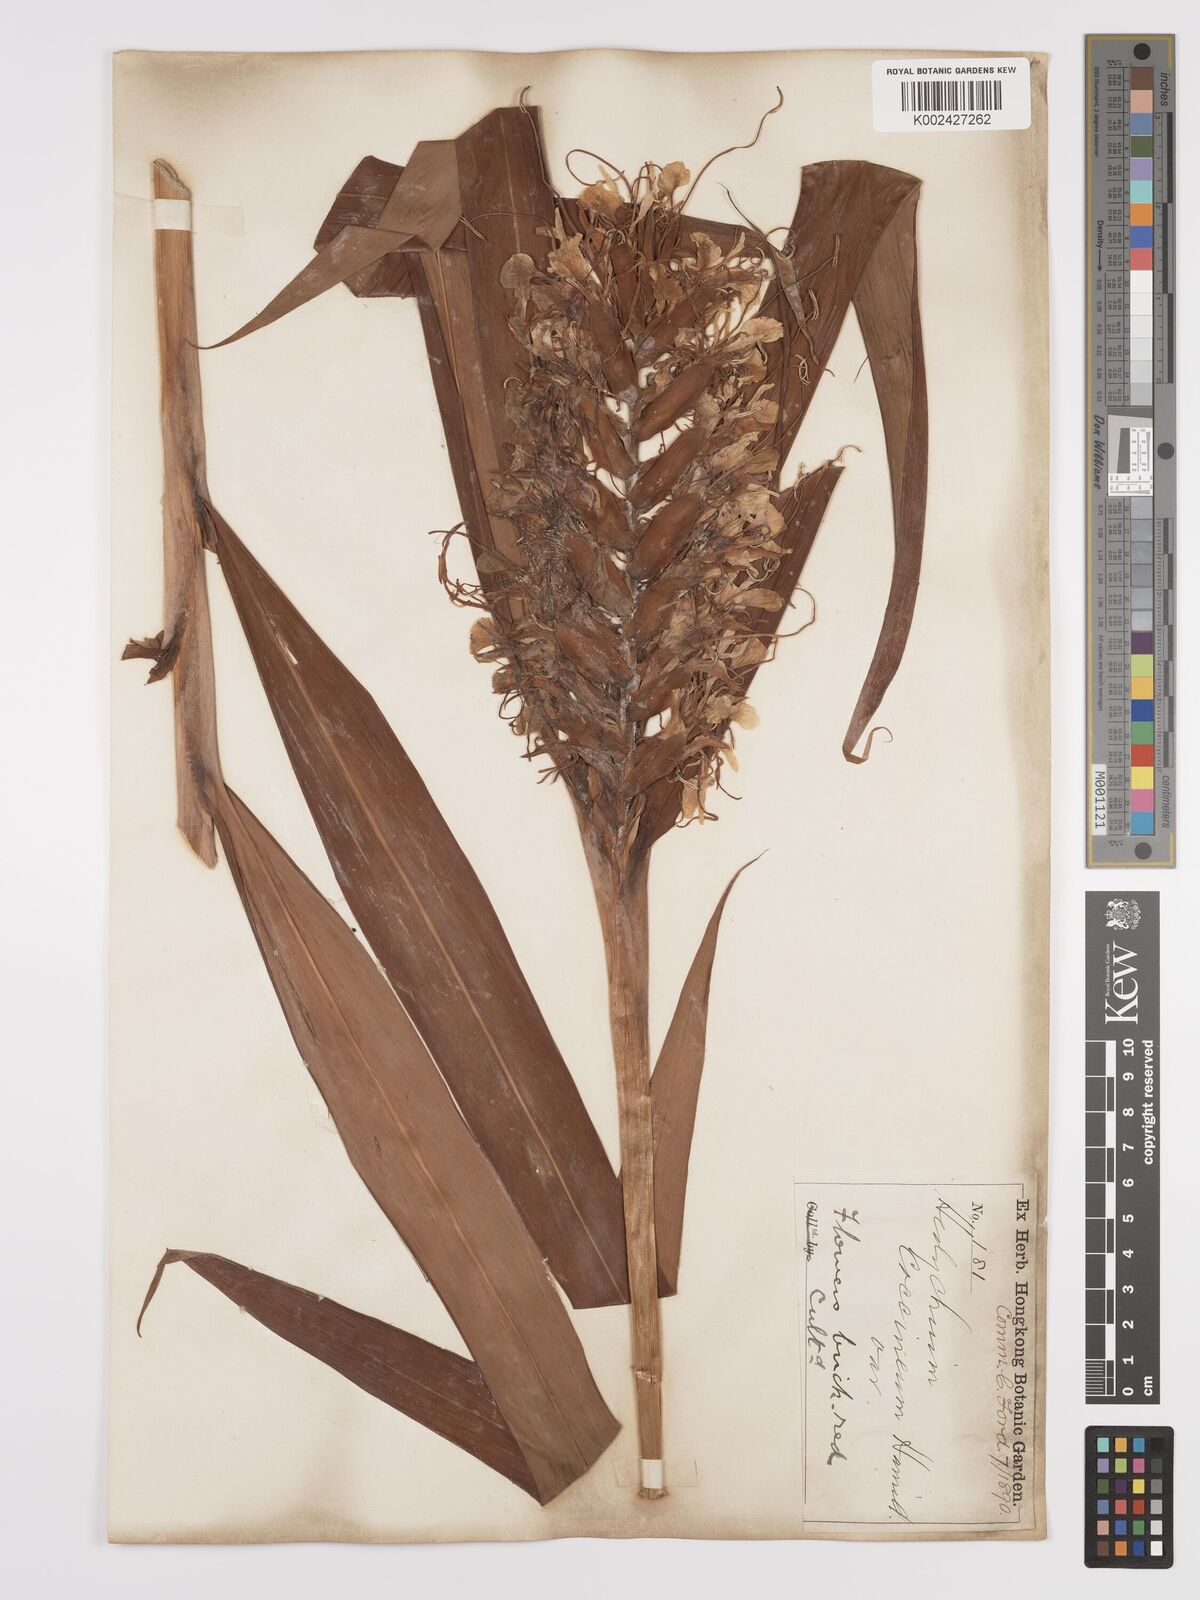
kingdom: Plantae
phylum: Tracheophyta
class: Liliopsida
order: Zingiberales
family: Zingiberaceae
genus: Hedychium
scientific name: Hedychium coccineum
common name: Red ginger-lily
